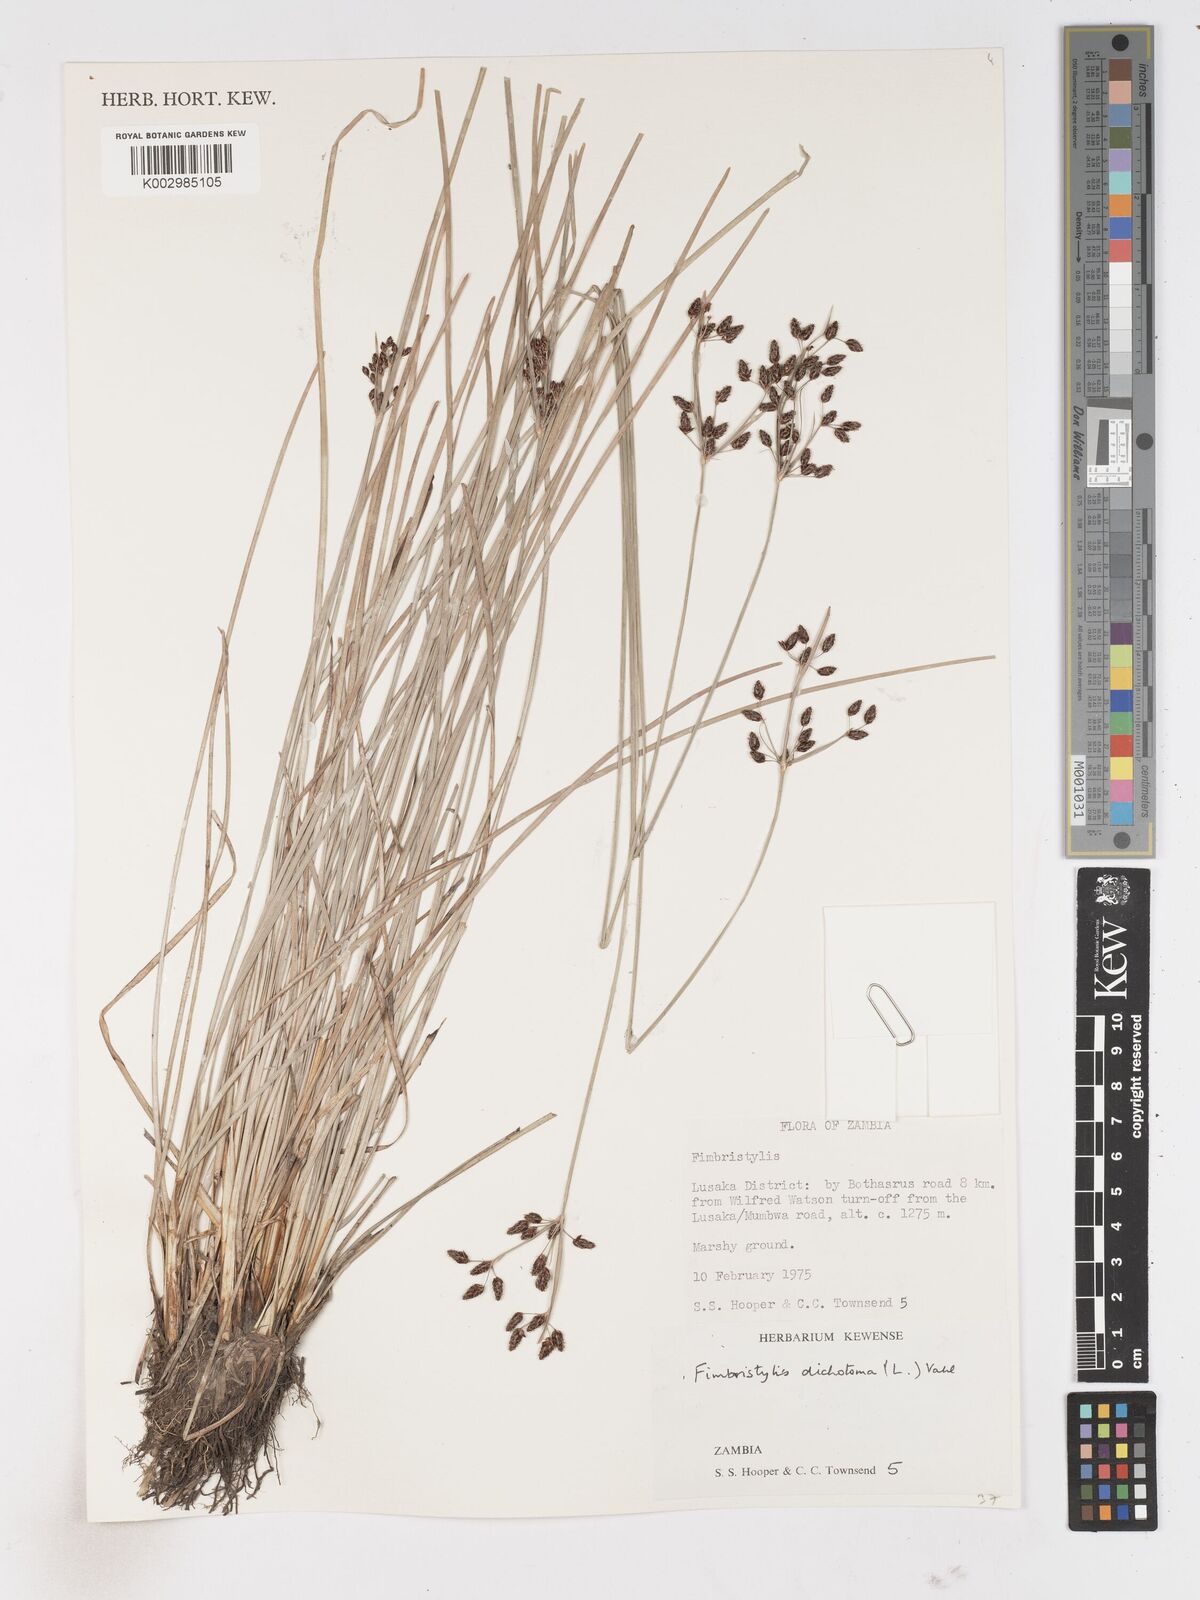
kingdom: Plantae
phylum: Tracheophyta
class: Liliopsida
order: Poales
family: Cyperaceae
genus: Fimbristylis
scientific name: Fimbristylis dichotoma
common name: Forked fimbry
